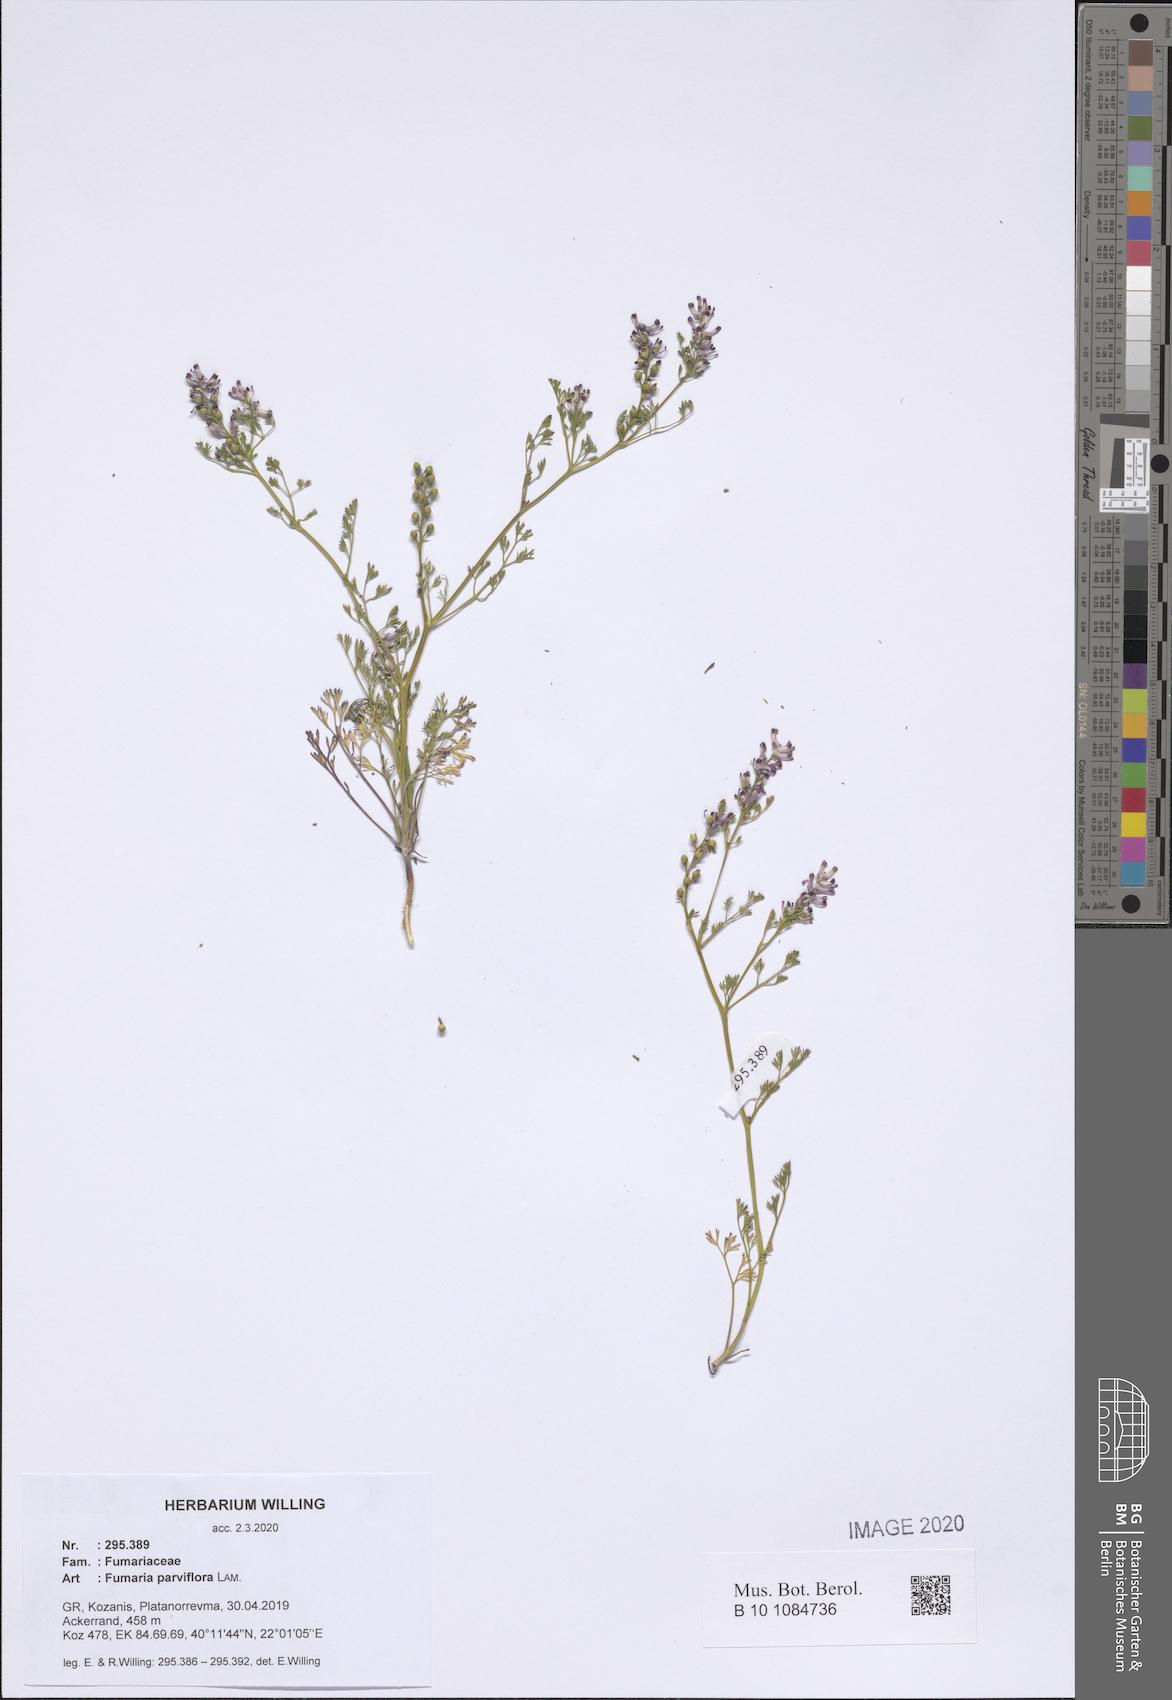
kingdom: Plantae
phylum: Tracheophyta
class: Magnoliopsida
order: Ranunculales
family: Papaveraceae
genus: Fumaria
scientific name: Fumaria parviflora
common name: Fine-leaved fumitory
